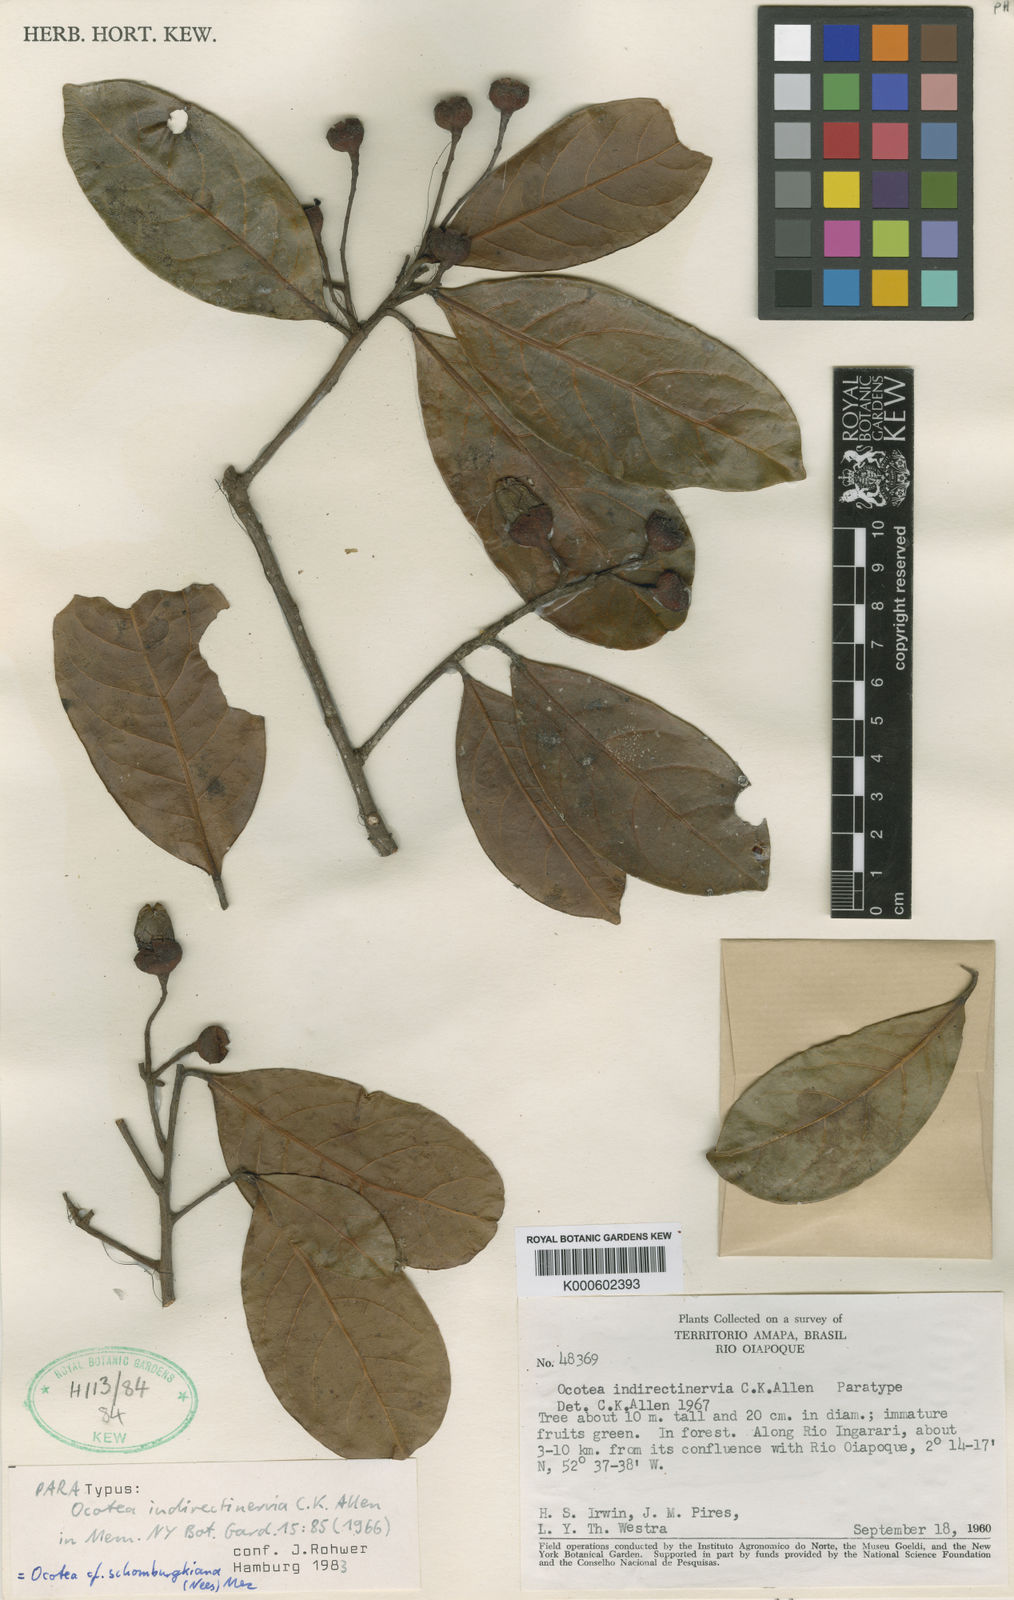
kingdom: Plantae
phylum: Tracheophyta
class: Magnoliopsida
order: Laurales
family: Lauraceae
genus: Ocotea
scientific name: Ocotea indirectinervia
